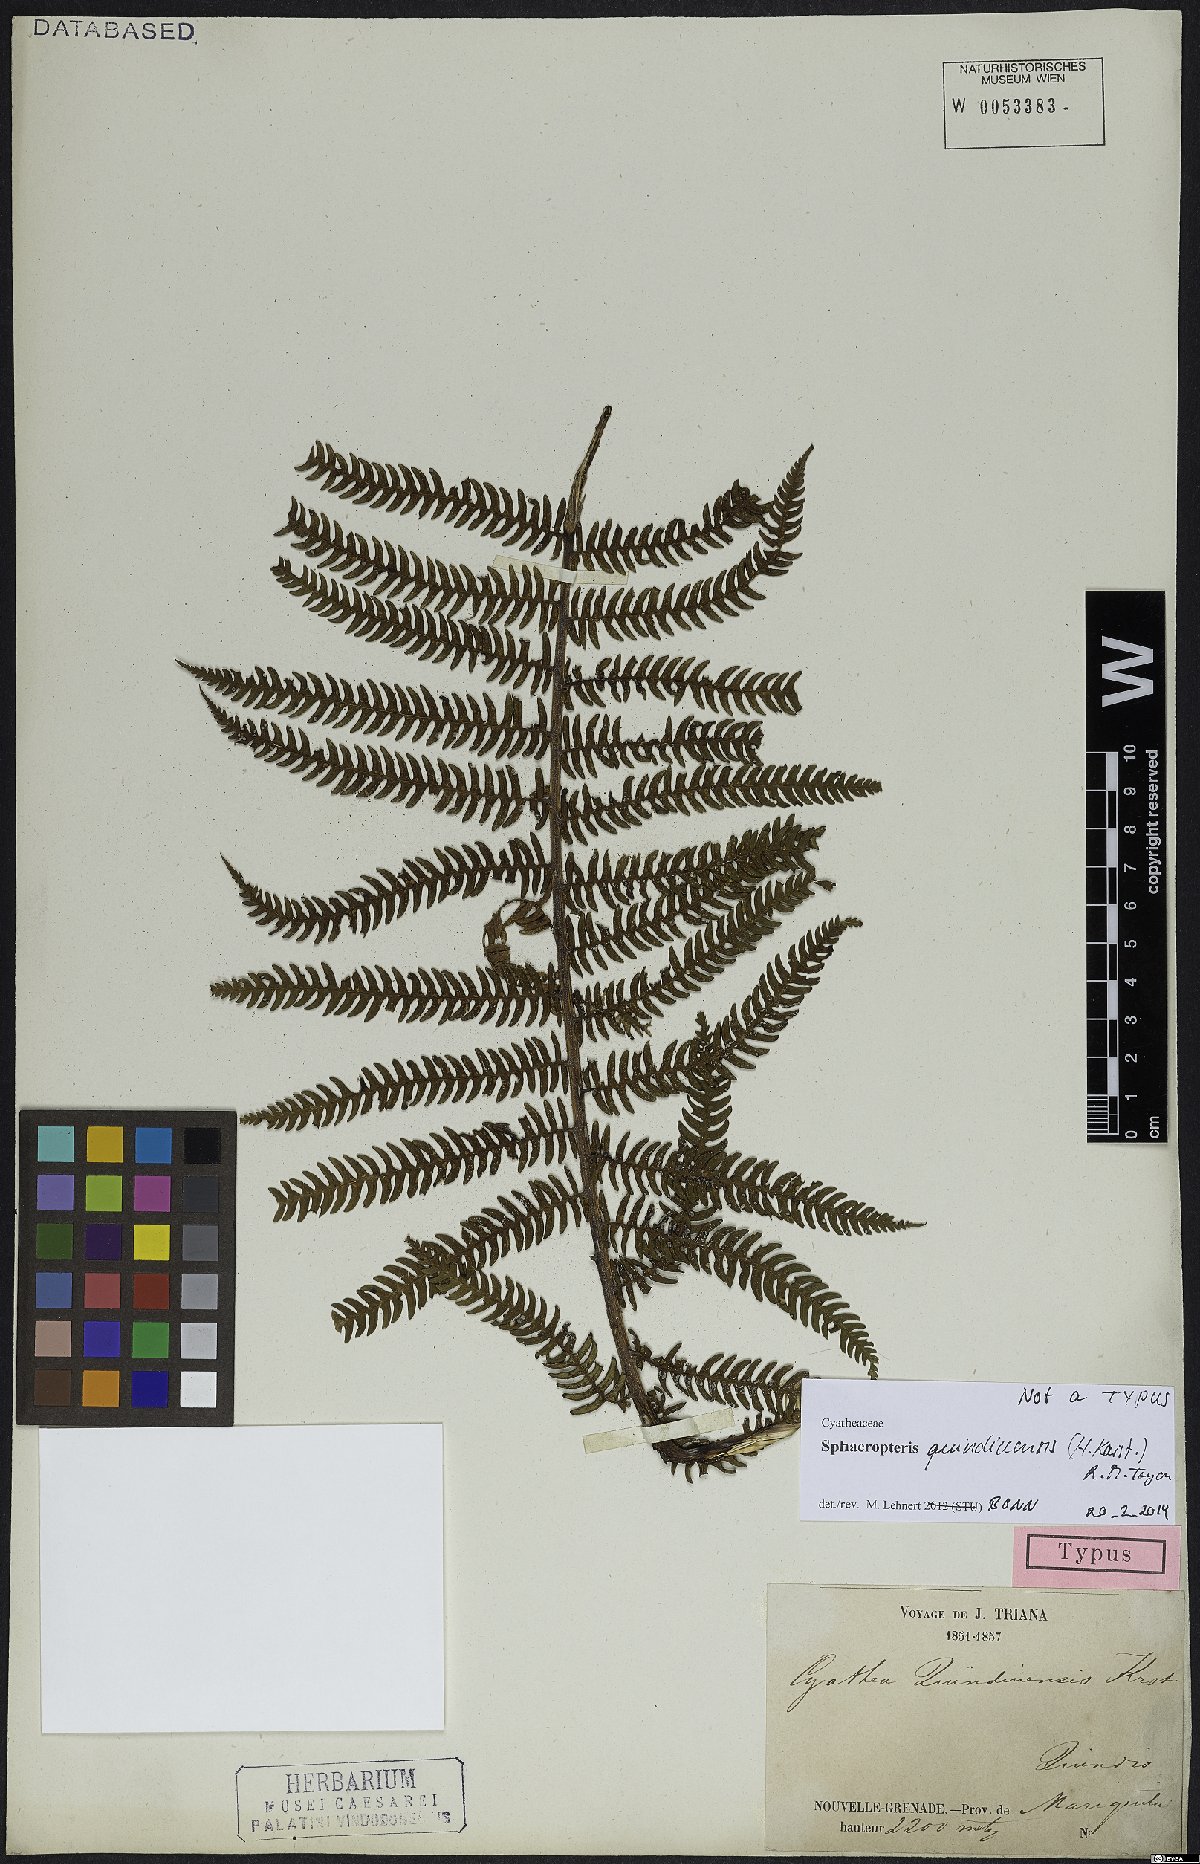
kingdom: Plantae
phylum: Tracheophyta
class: Polypodiopsida
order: Cyatheales
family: Cyatheaceae
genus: Sphaeropteris
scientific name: Sphaeropteris quindiuensis
